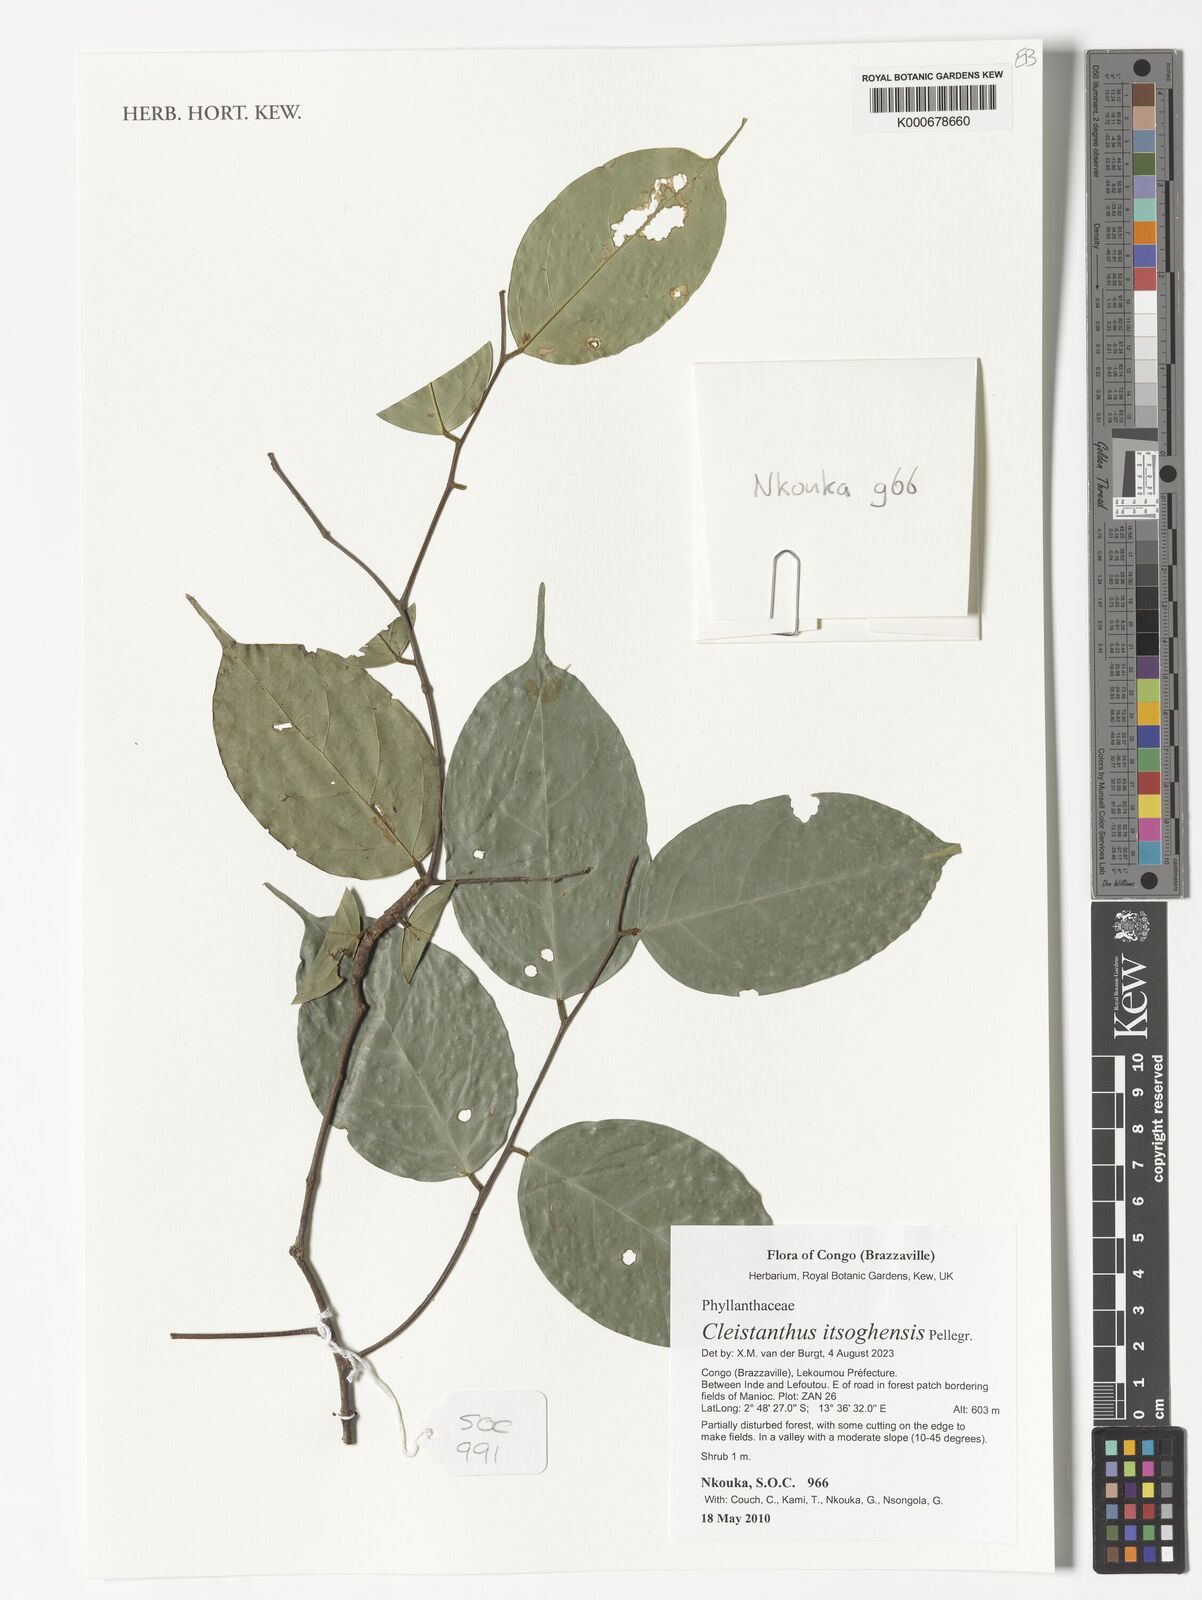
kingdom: Plantae
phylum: Tracheophyta
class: Magnoliopsida
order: Malpighiales
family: Phyllanthaceae
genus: Cleistanthus
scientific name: Cleistanthus itsoghensis
